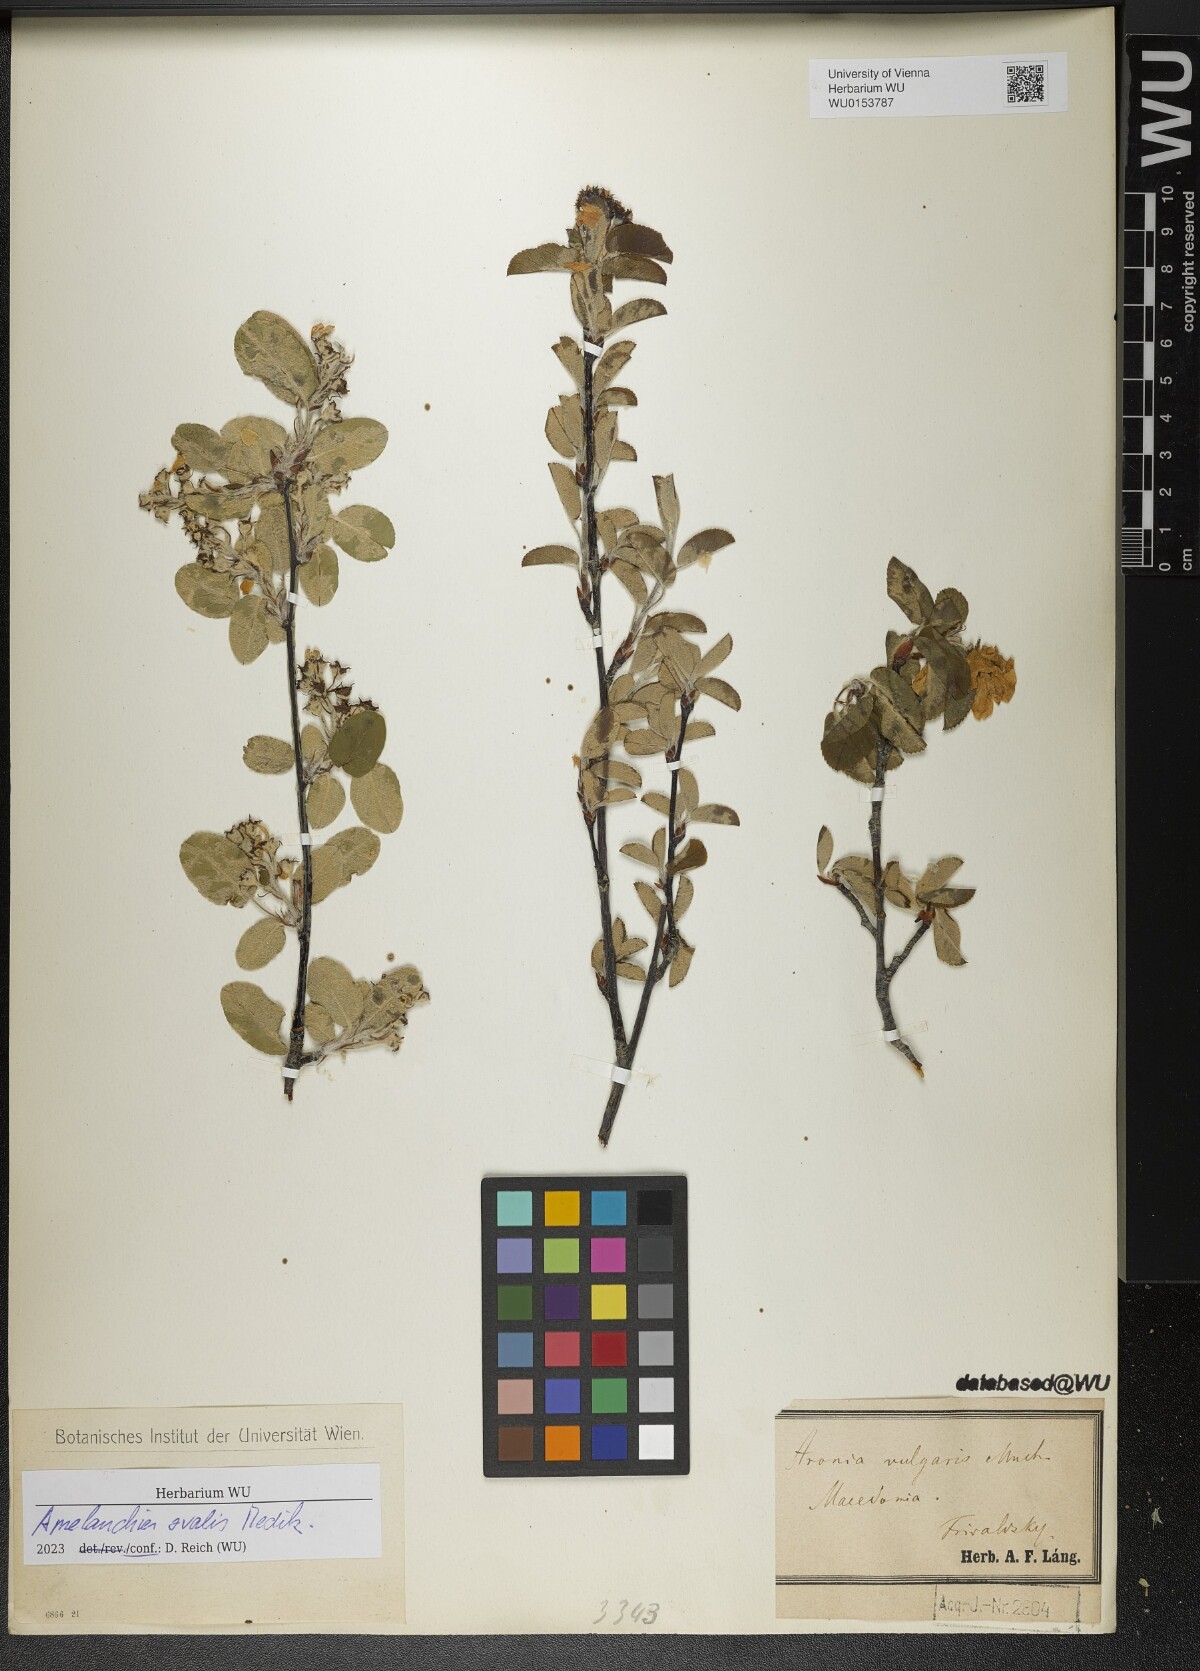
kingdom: Plantae
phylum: Tracheophyta
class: Magnoliopsida
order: Rosales
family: Rosaceae
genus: Amelanchier
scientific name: Amelanchier ovalis
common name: Serviceberry
